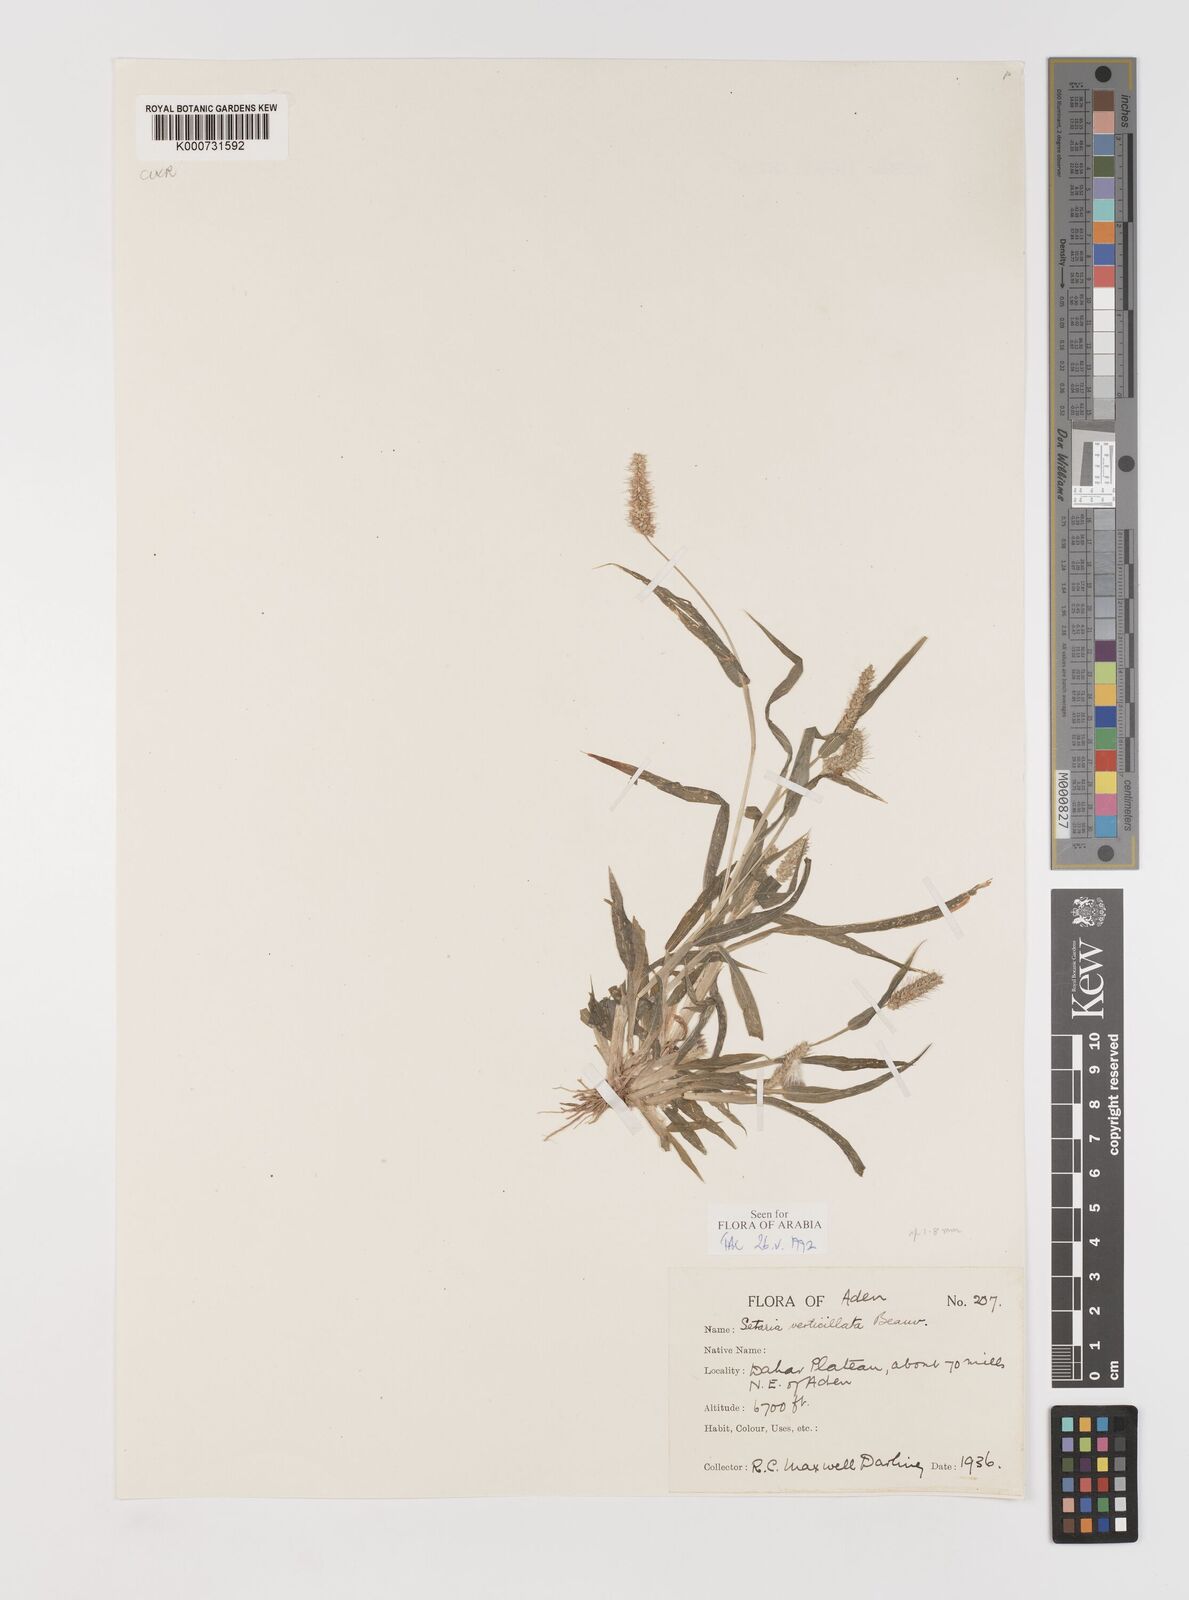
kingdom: Plantae
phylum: Tracheophyta
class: Liliopsida
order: Poales
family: Poaceae
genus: Setaria
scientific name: Setaria verticillata
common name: Hooked bristlegrass
